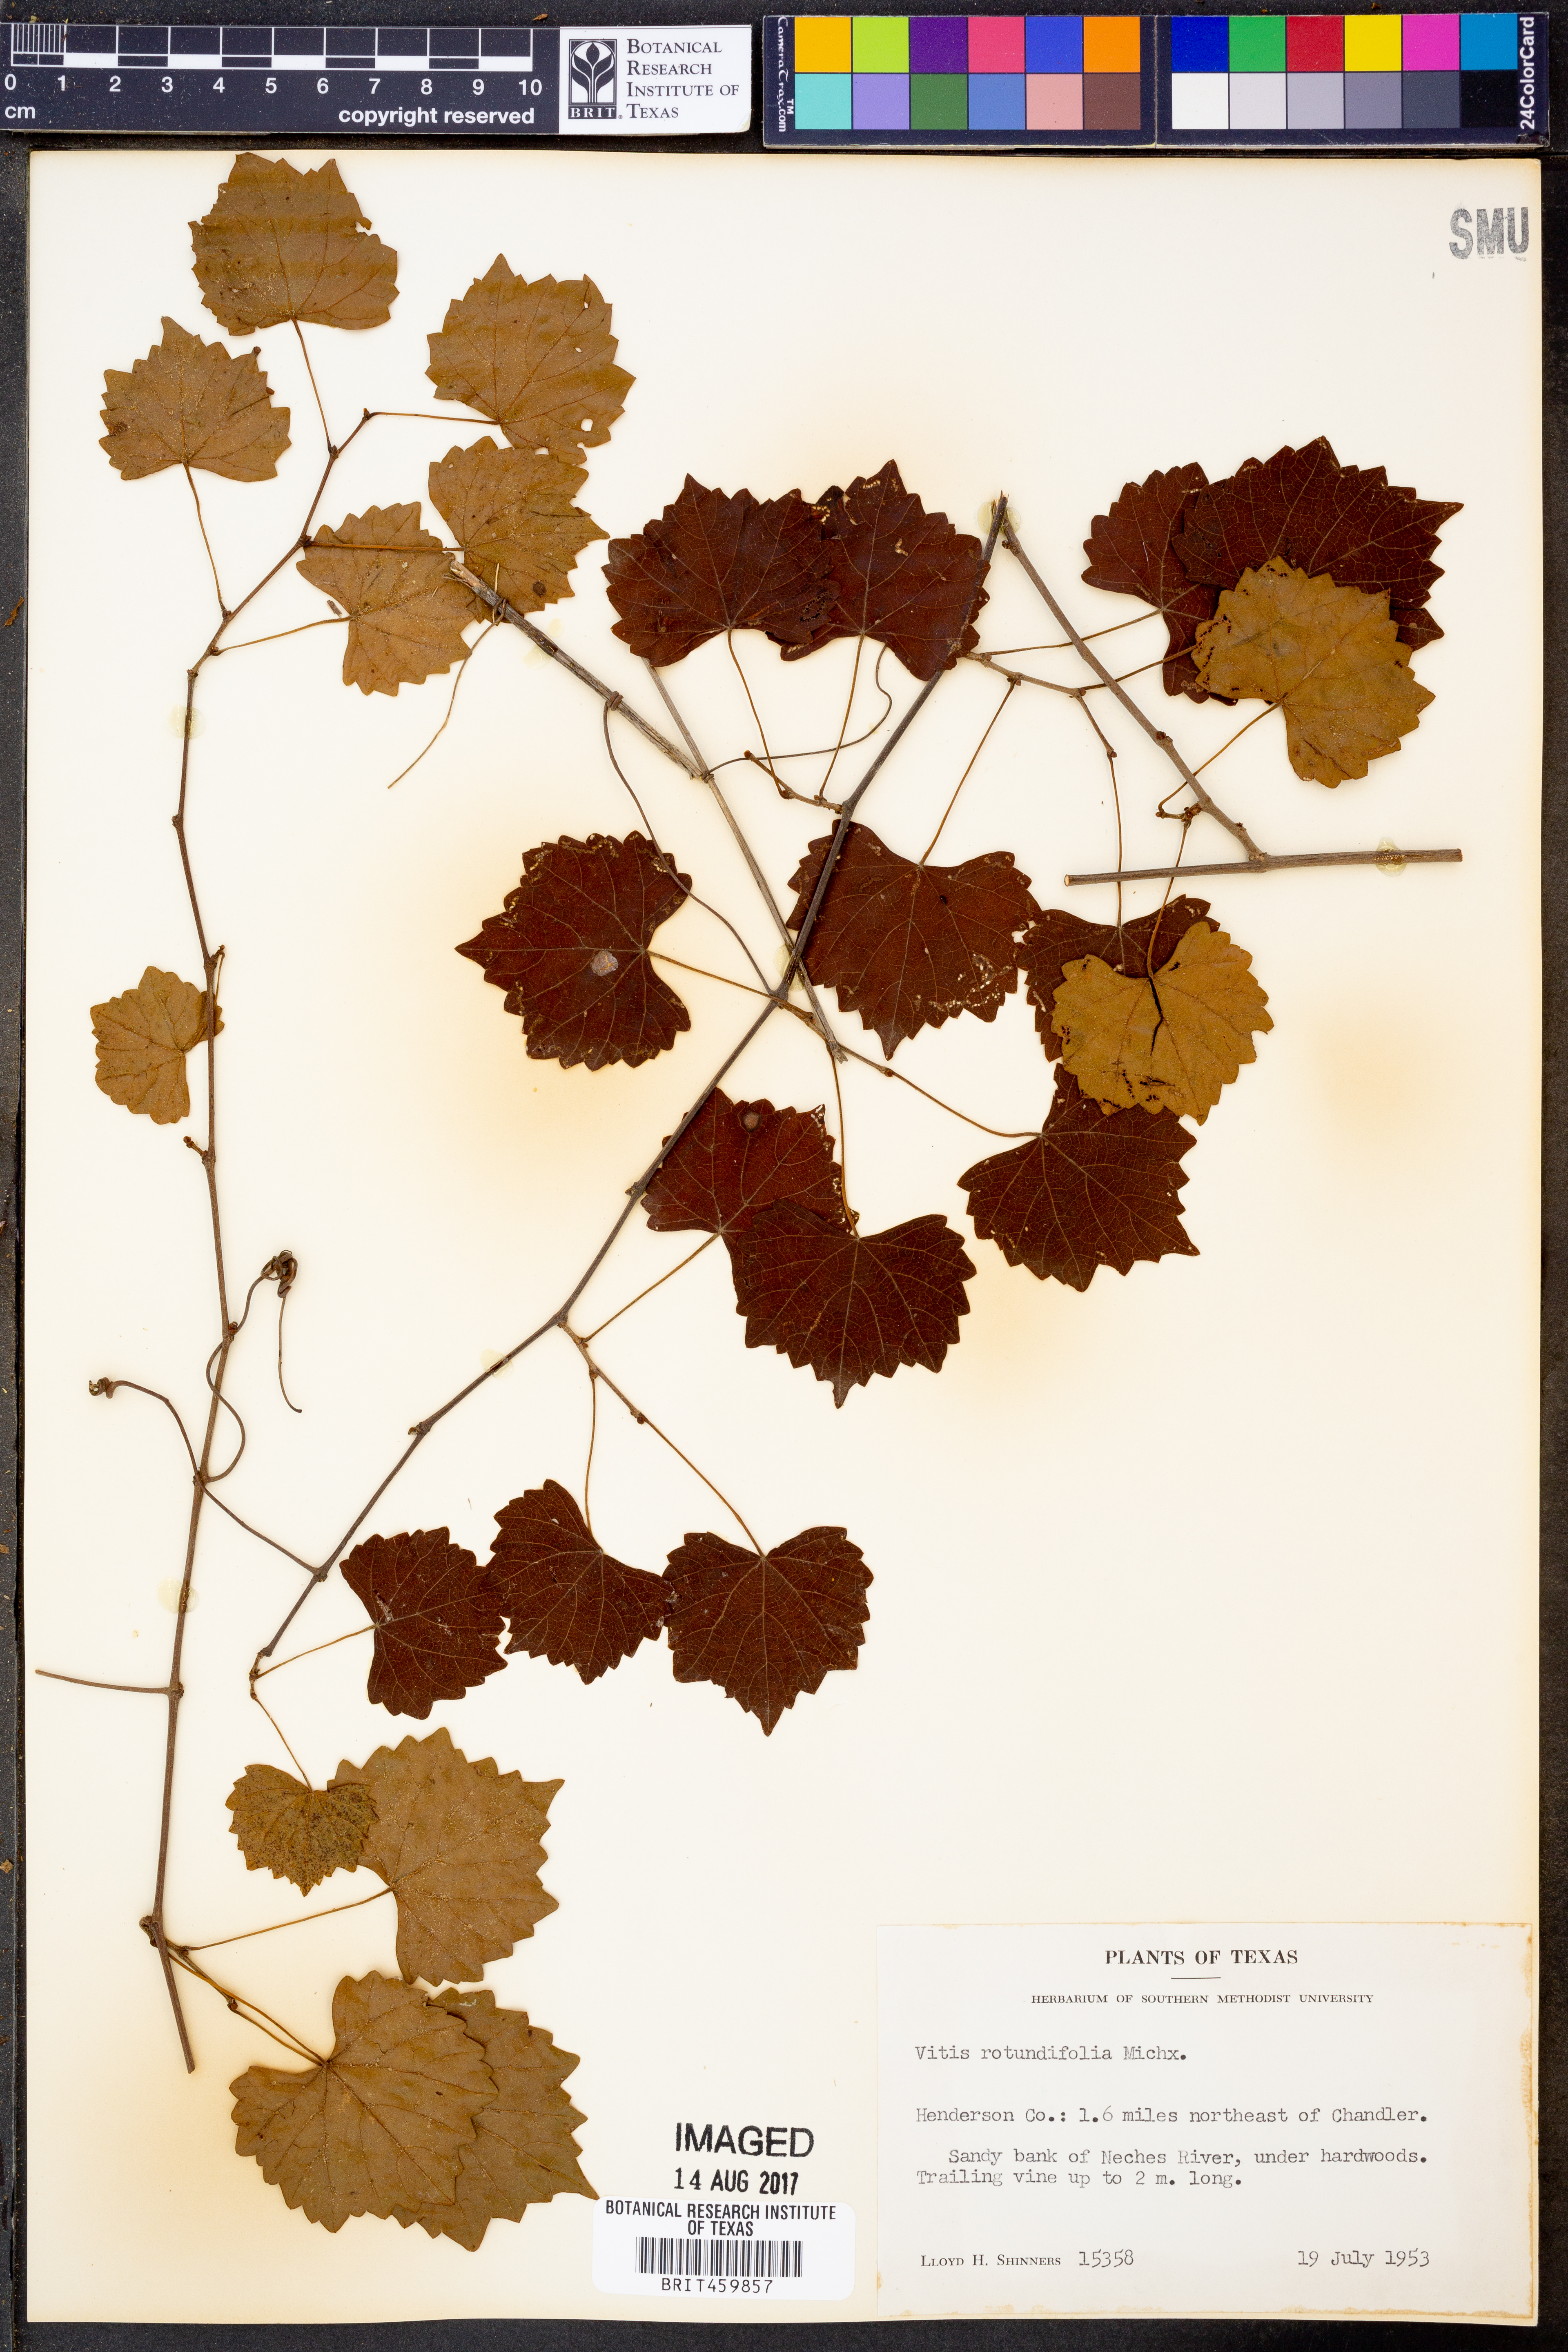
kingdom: Plantae
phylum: Tracheophyta
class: Magnoliopsida
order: Vitales
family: Vitaceae
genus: Vitis
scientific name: Vitis rotundifolia
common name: Muscadine grape
